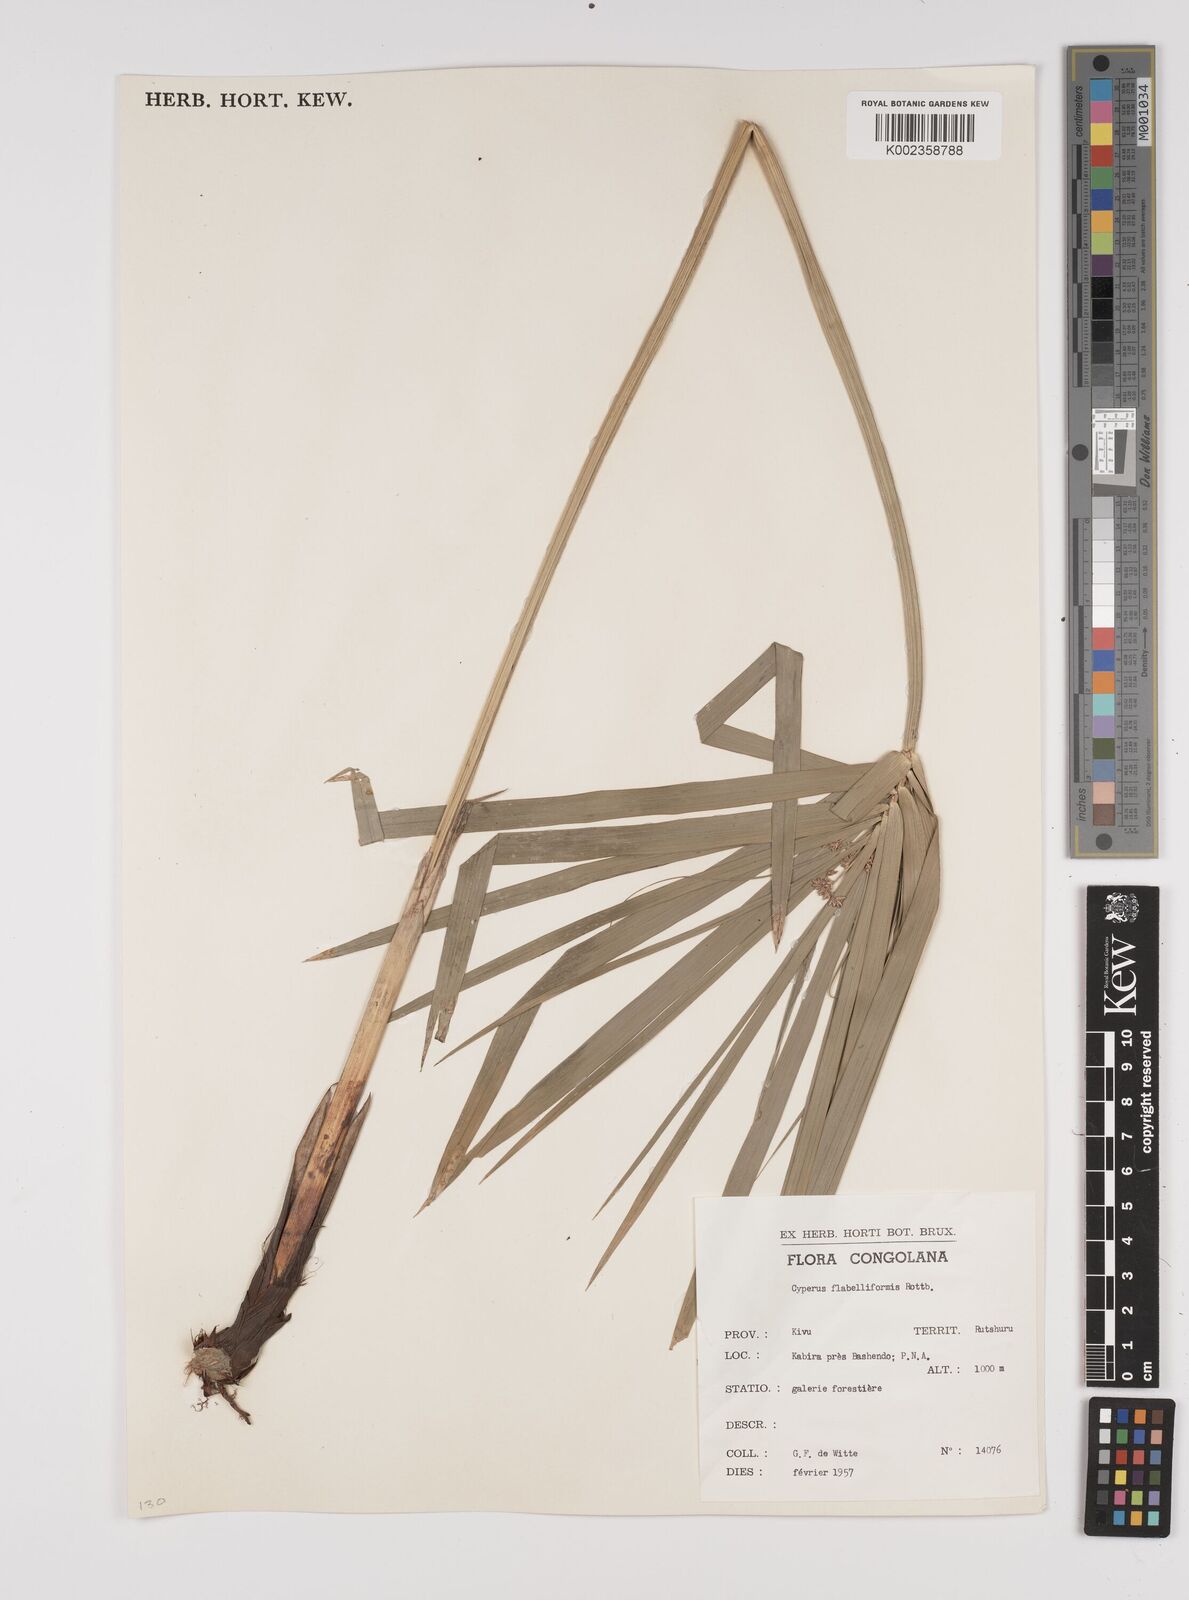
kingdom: Plantae
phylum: Tracheophyta
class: Liliopsida
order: Poales
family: Cyperaceae
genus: Cyperus
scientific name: Cyperus alternifolius
